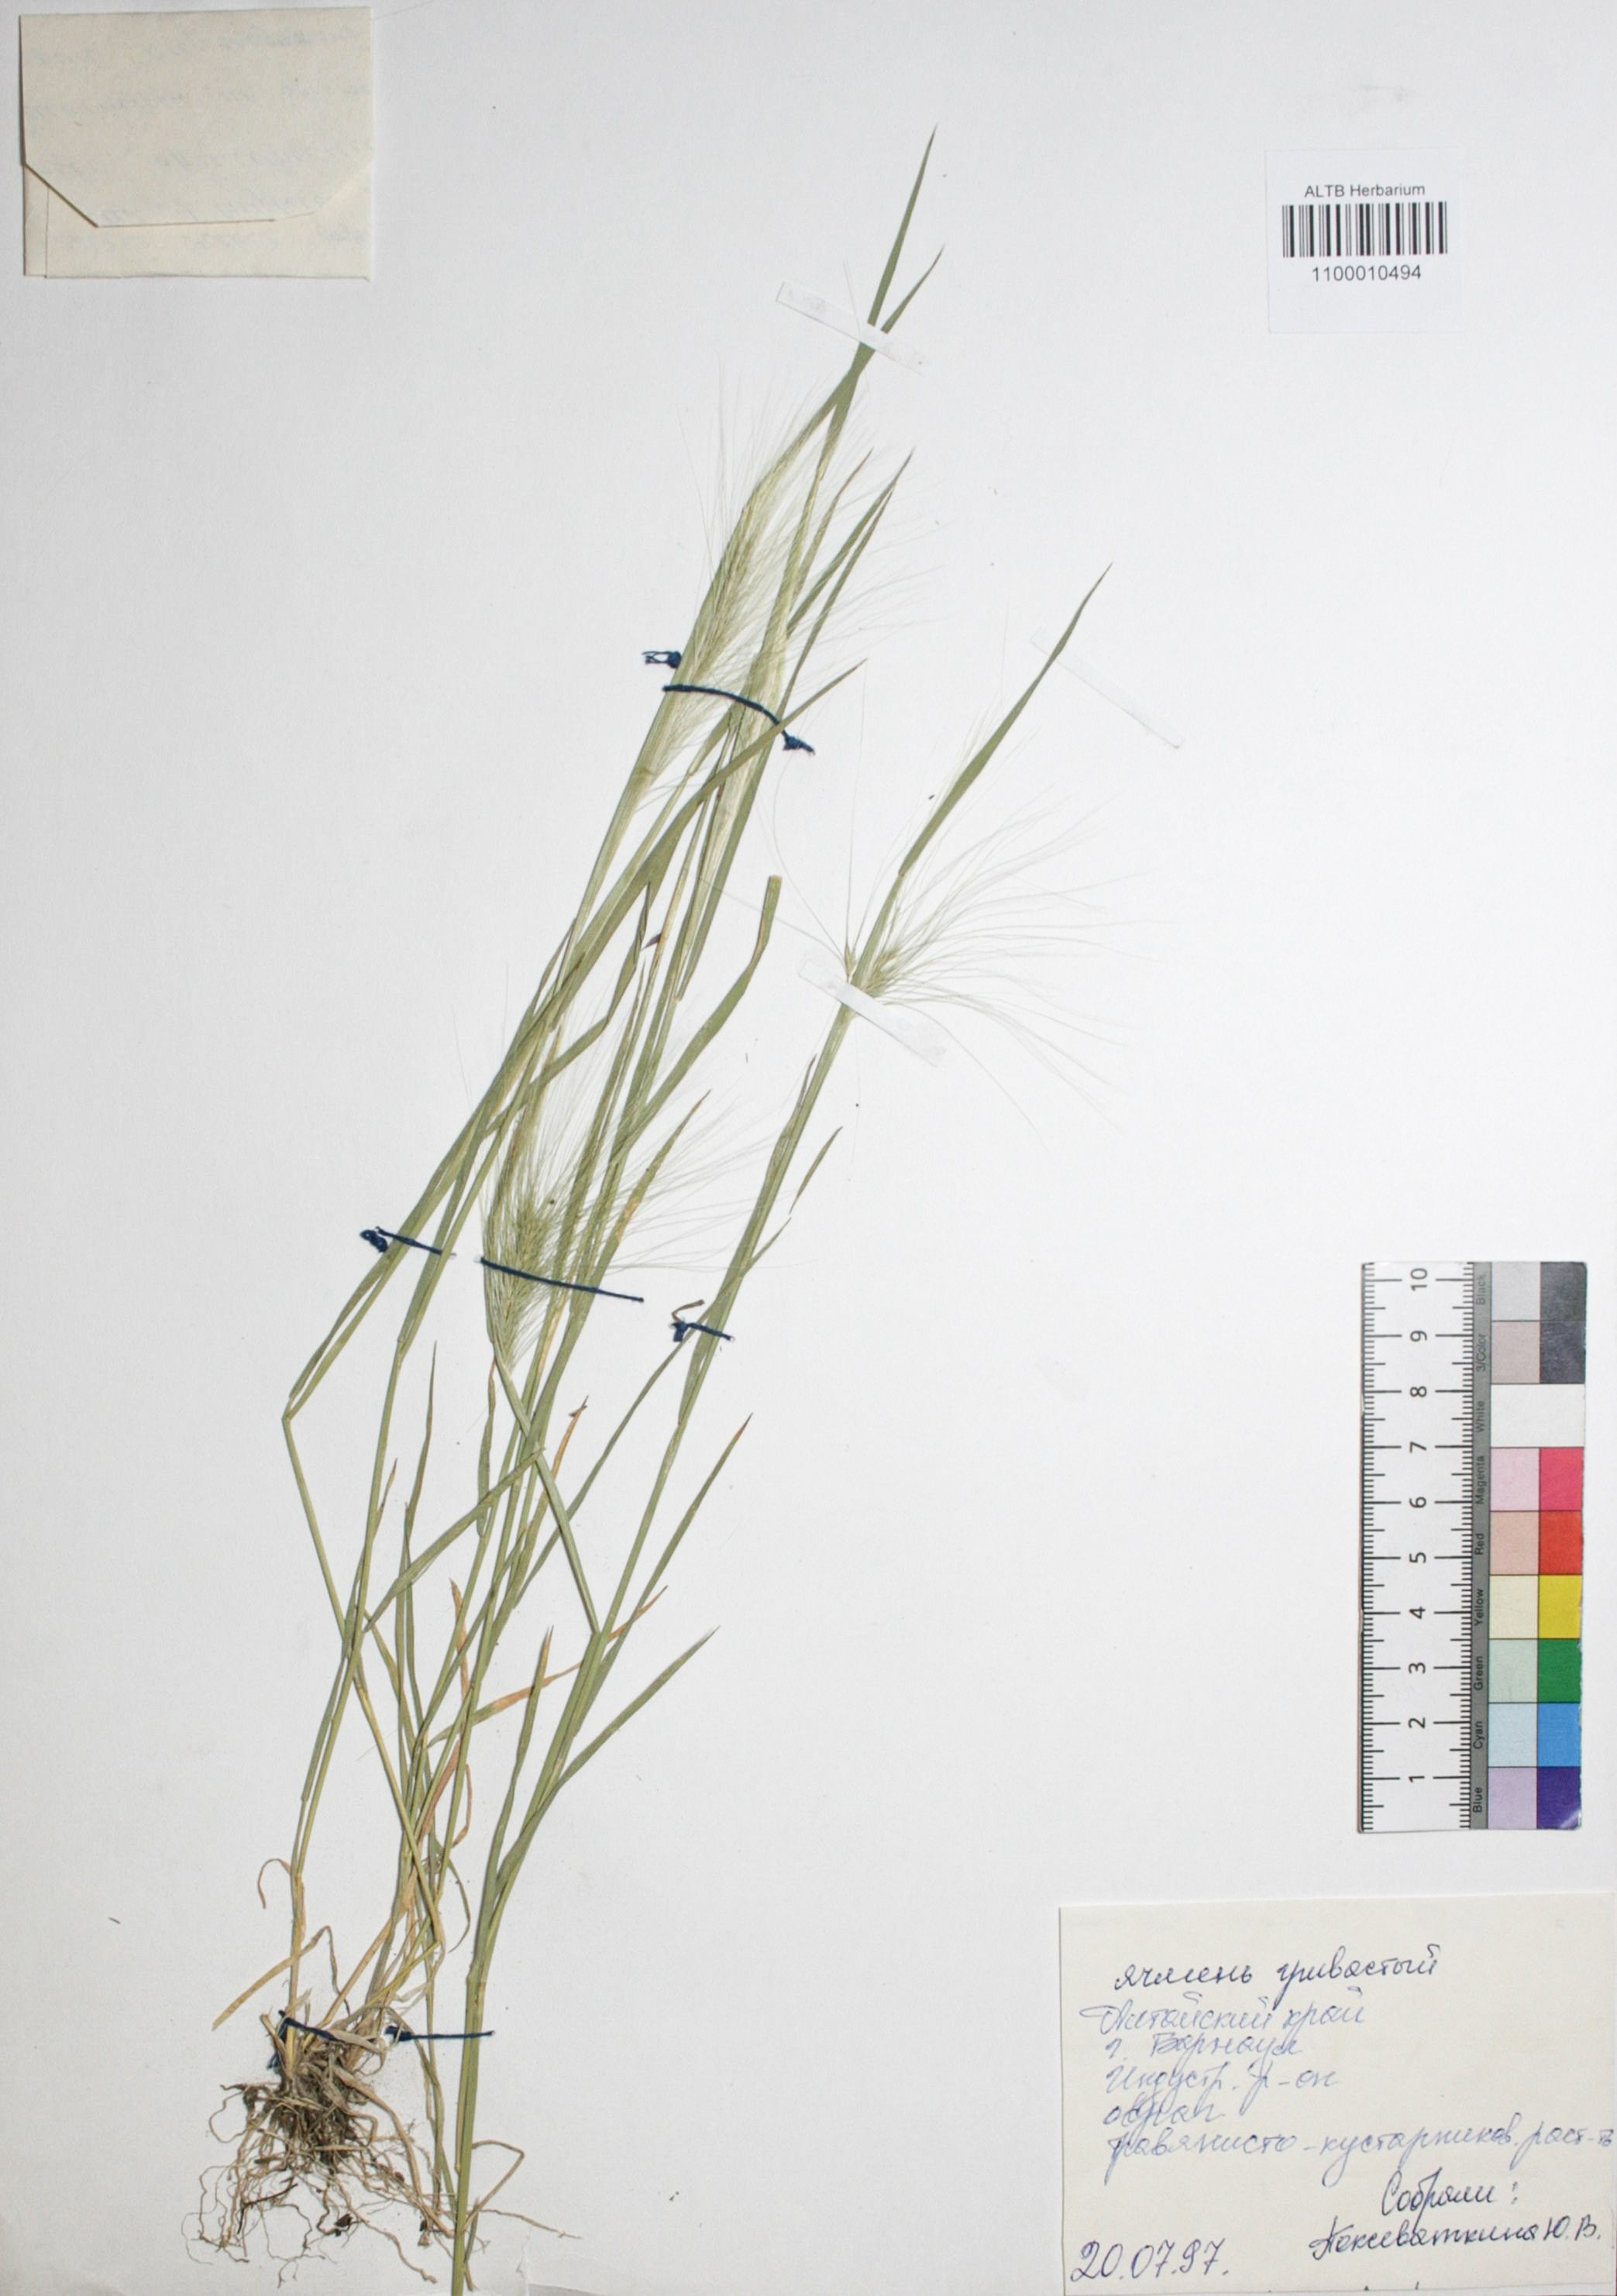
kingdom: Plantae
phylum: Tracheophyta
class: Liliopsida
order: Poales
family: Poaceae
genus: Hordeum
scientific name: Hordeum jubatum
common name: Foxtail barley
